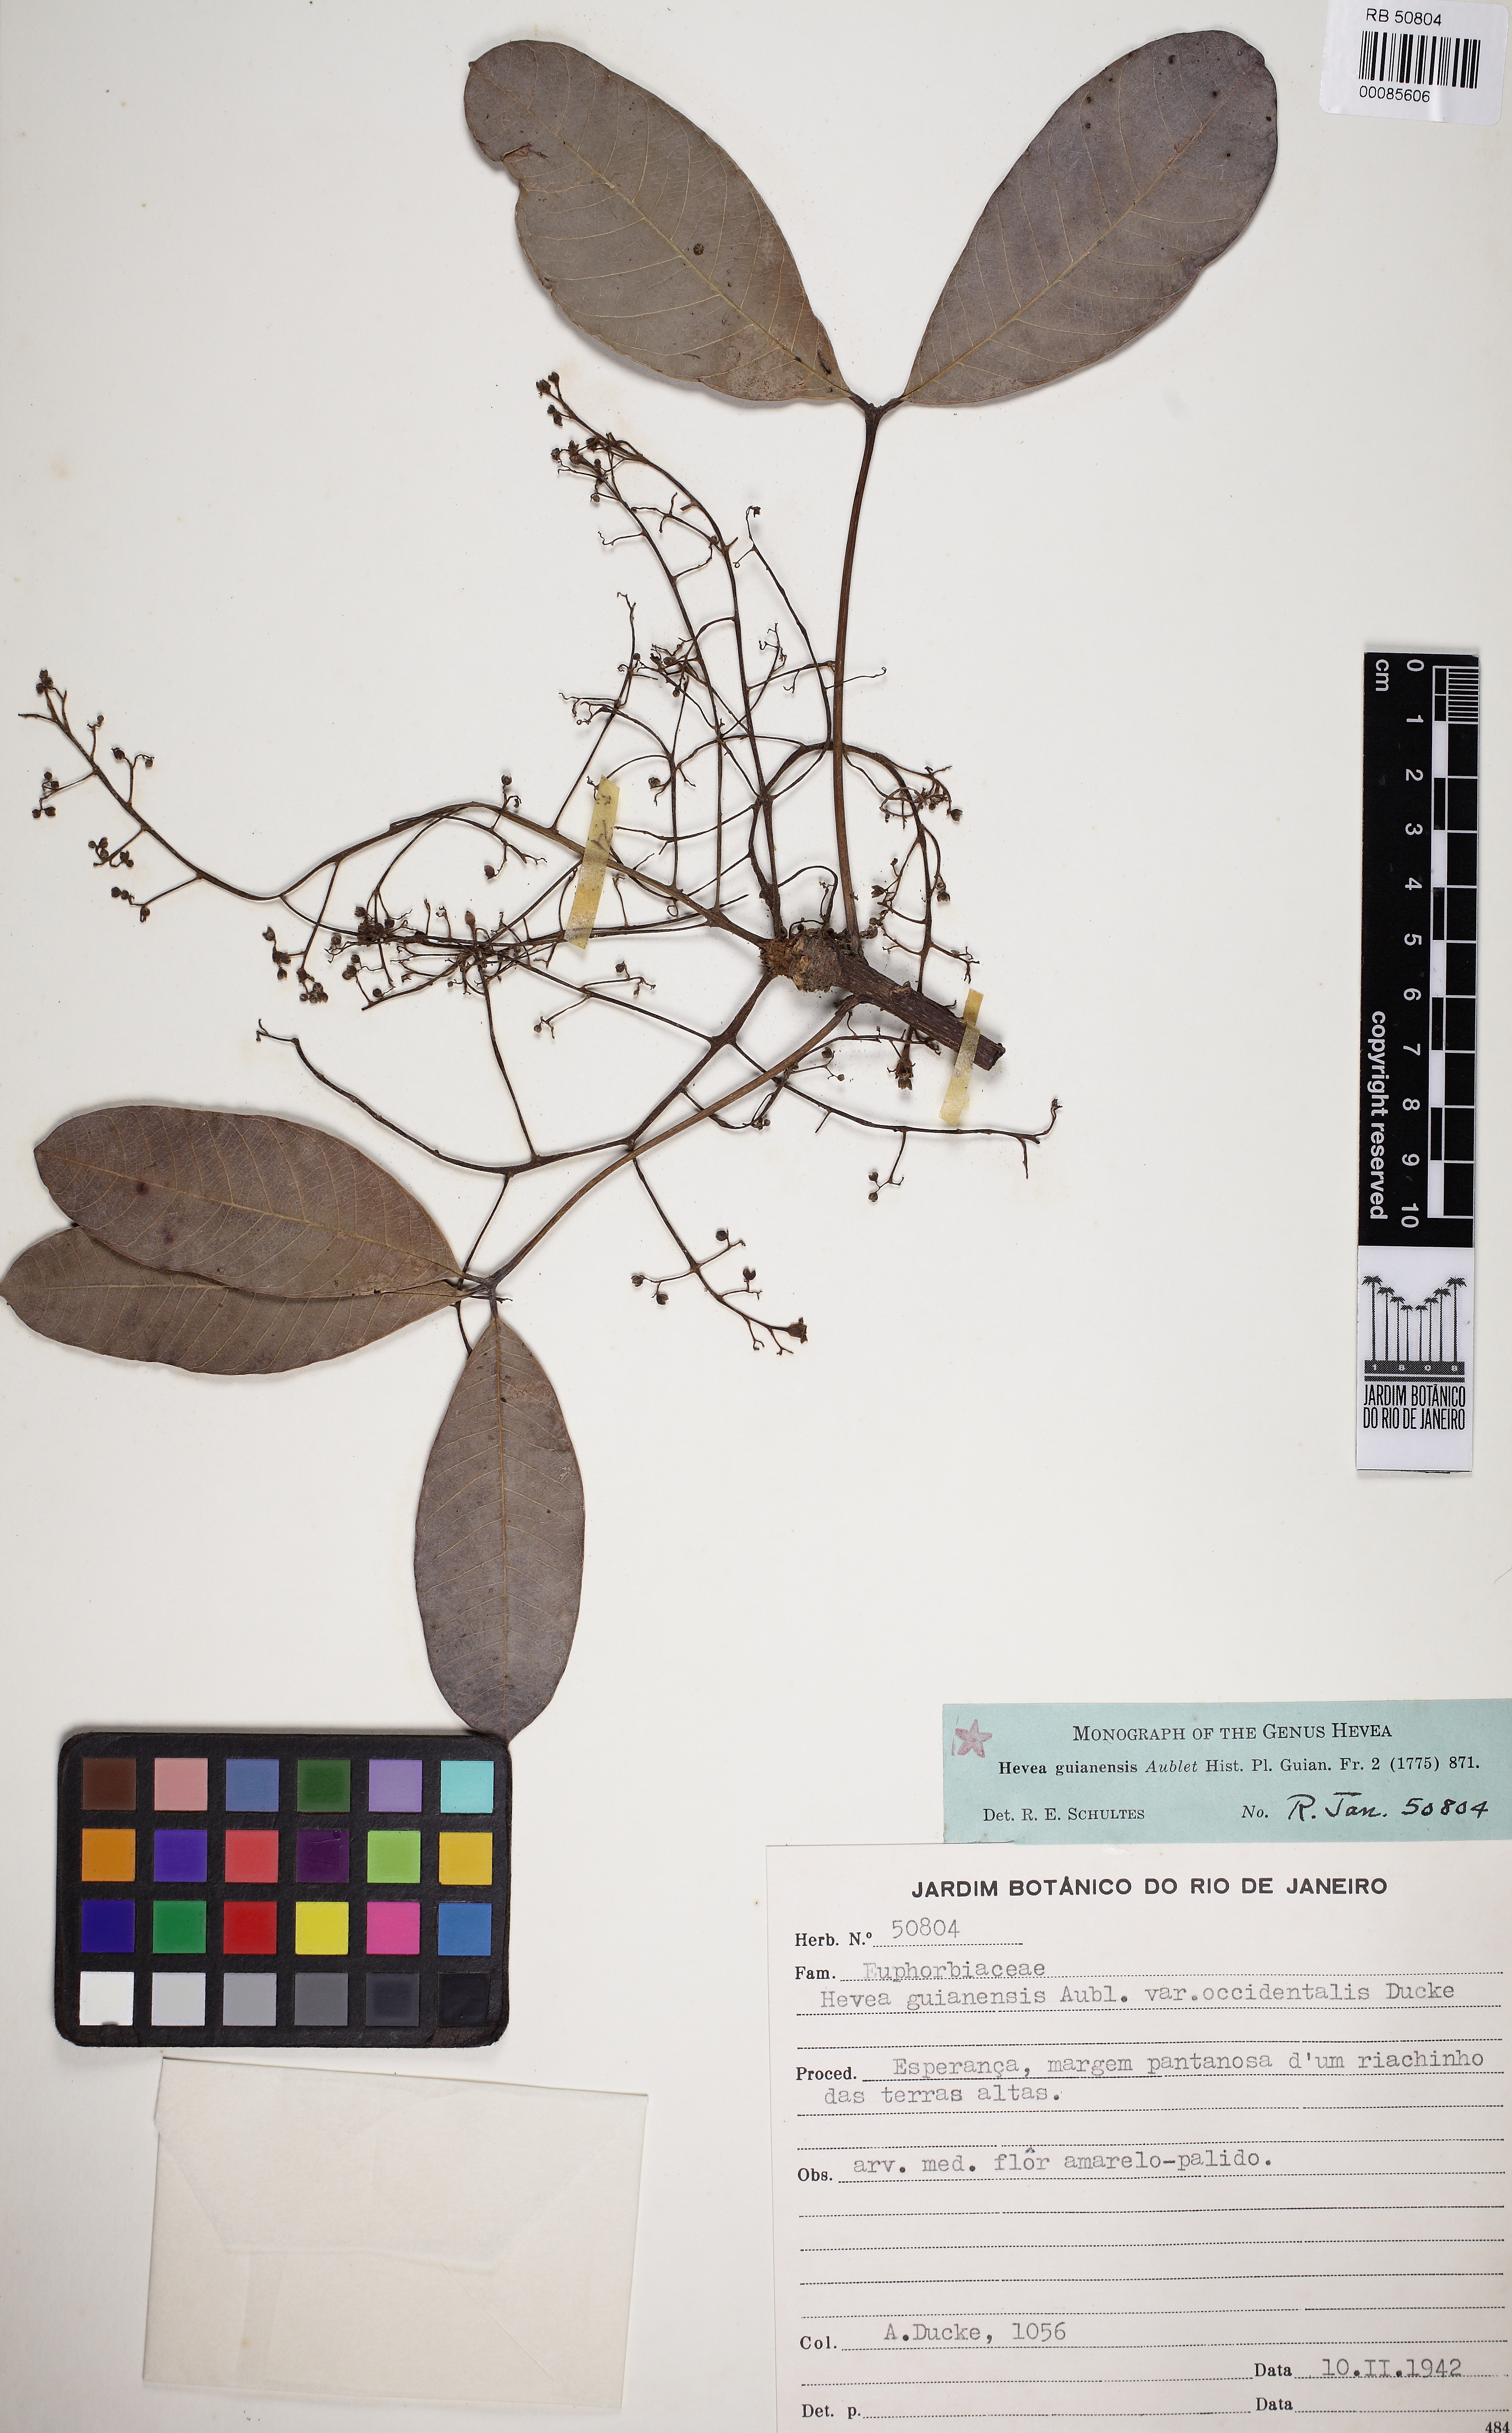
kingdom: Plantae
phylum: Tracheophyta
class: Magnoliopsida
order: Malpighiales
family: Euphorbiaceae
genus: Hevea
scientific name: Hevea guianensis
